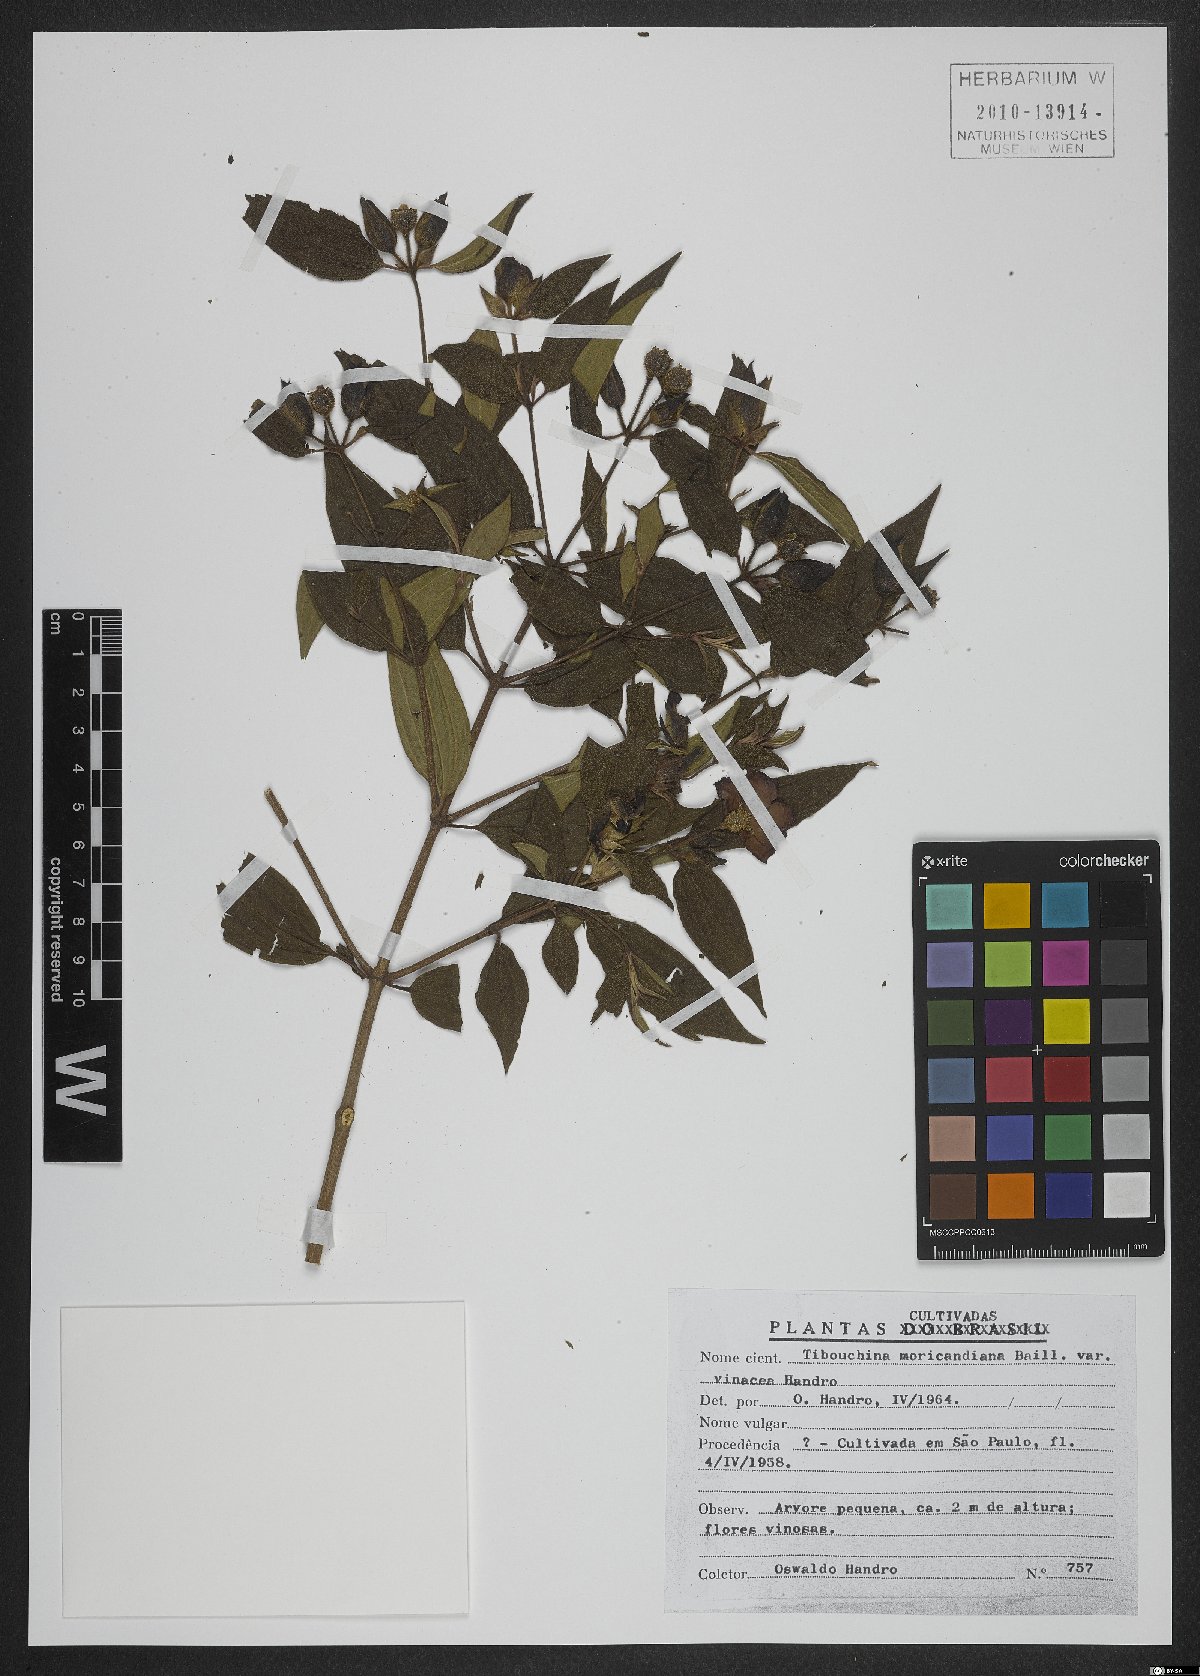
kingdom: Plantae
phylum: Tracheophyta
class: Magnoliopsida
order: Myrtales
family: Melastomataceae
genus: Pleroma
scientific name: Pleroma gaudichaudianum
